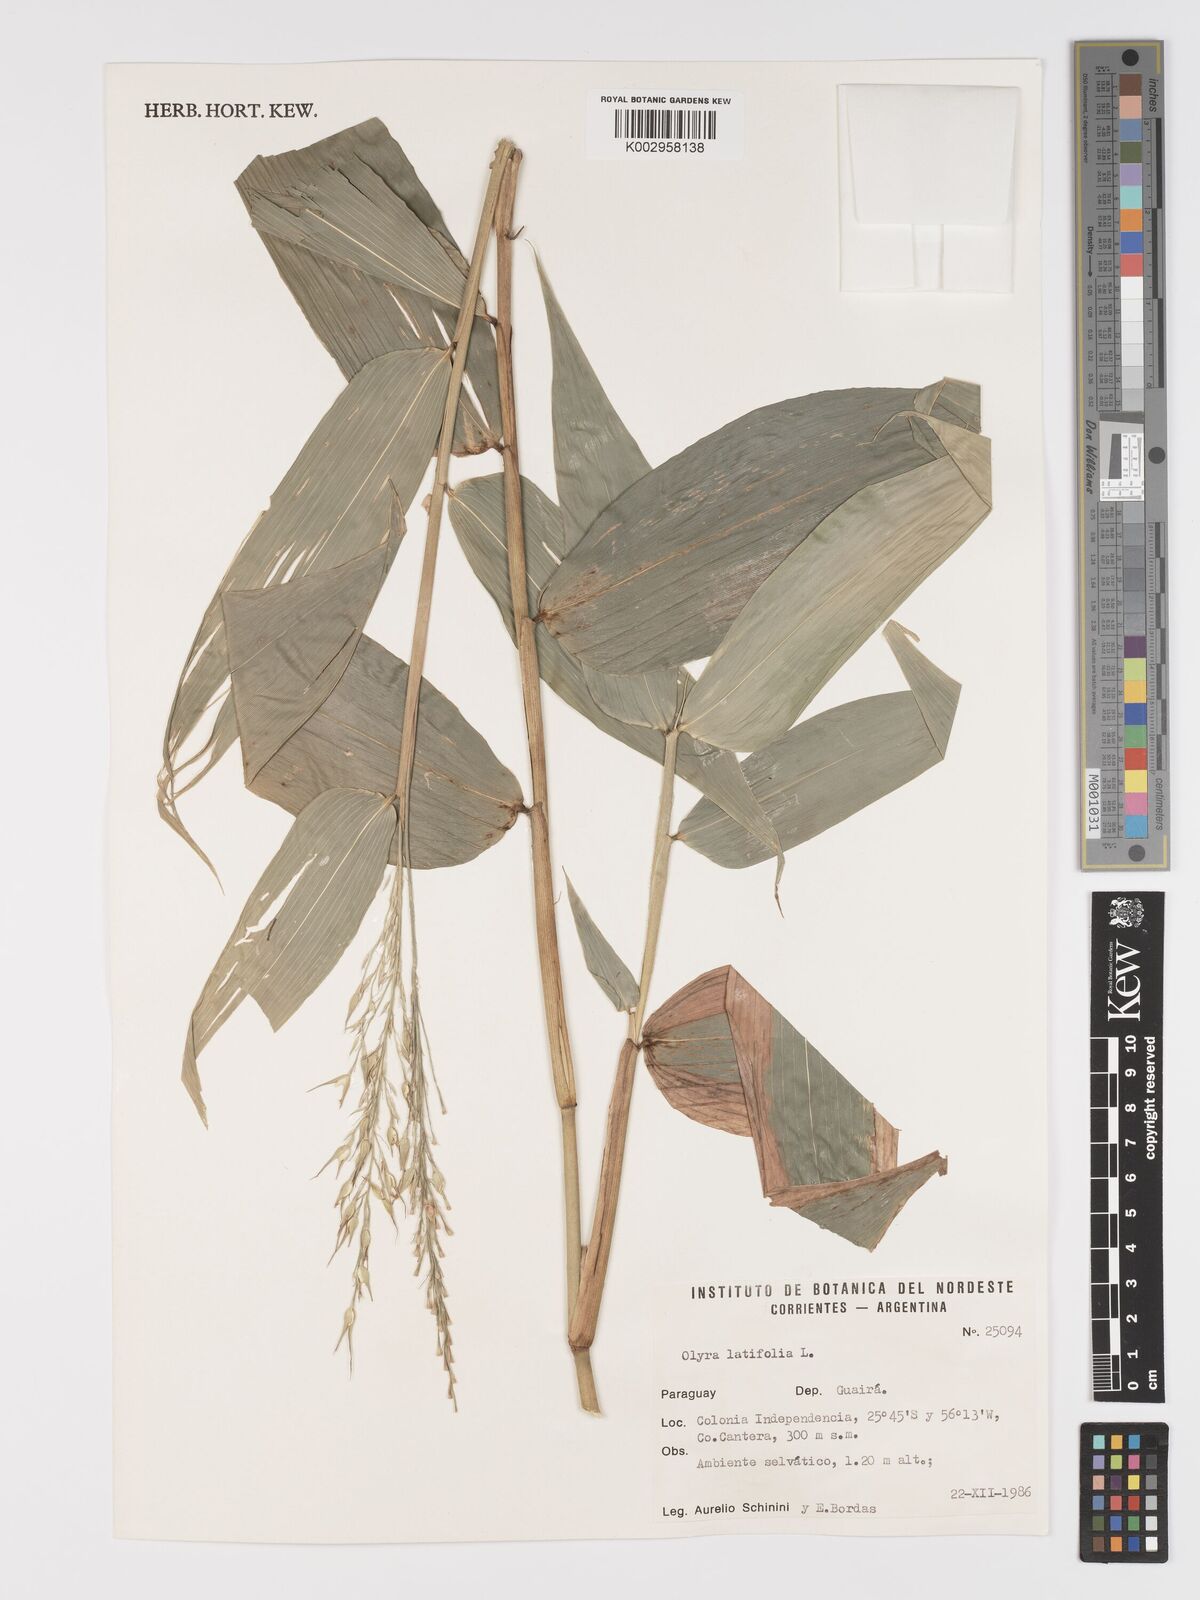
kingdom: Plantae
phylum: Tracheophyta
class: Liliopsida
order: Poales
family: Poaceae
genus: Olyra
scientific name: Olyra latifolia
